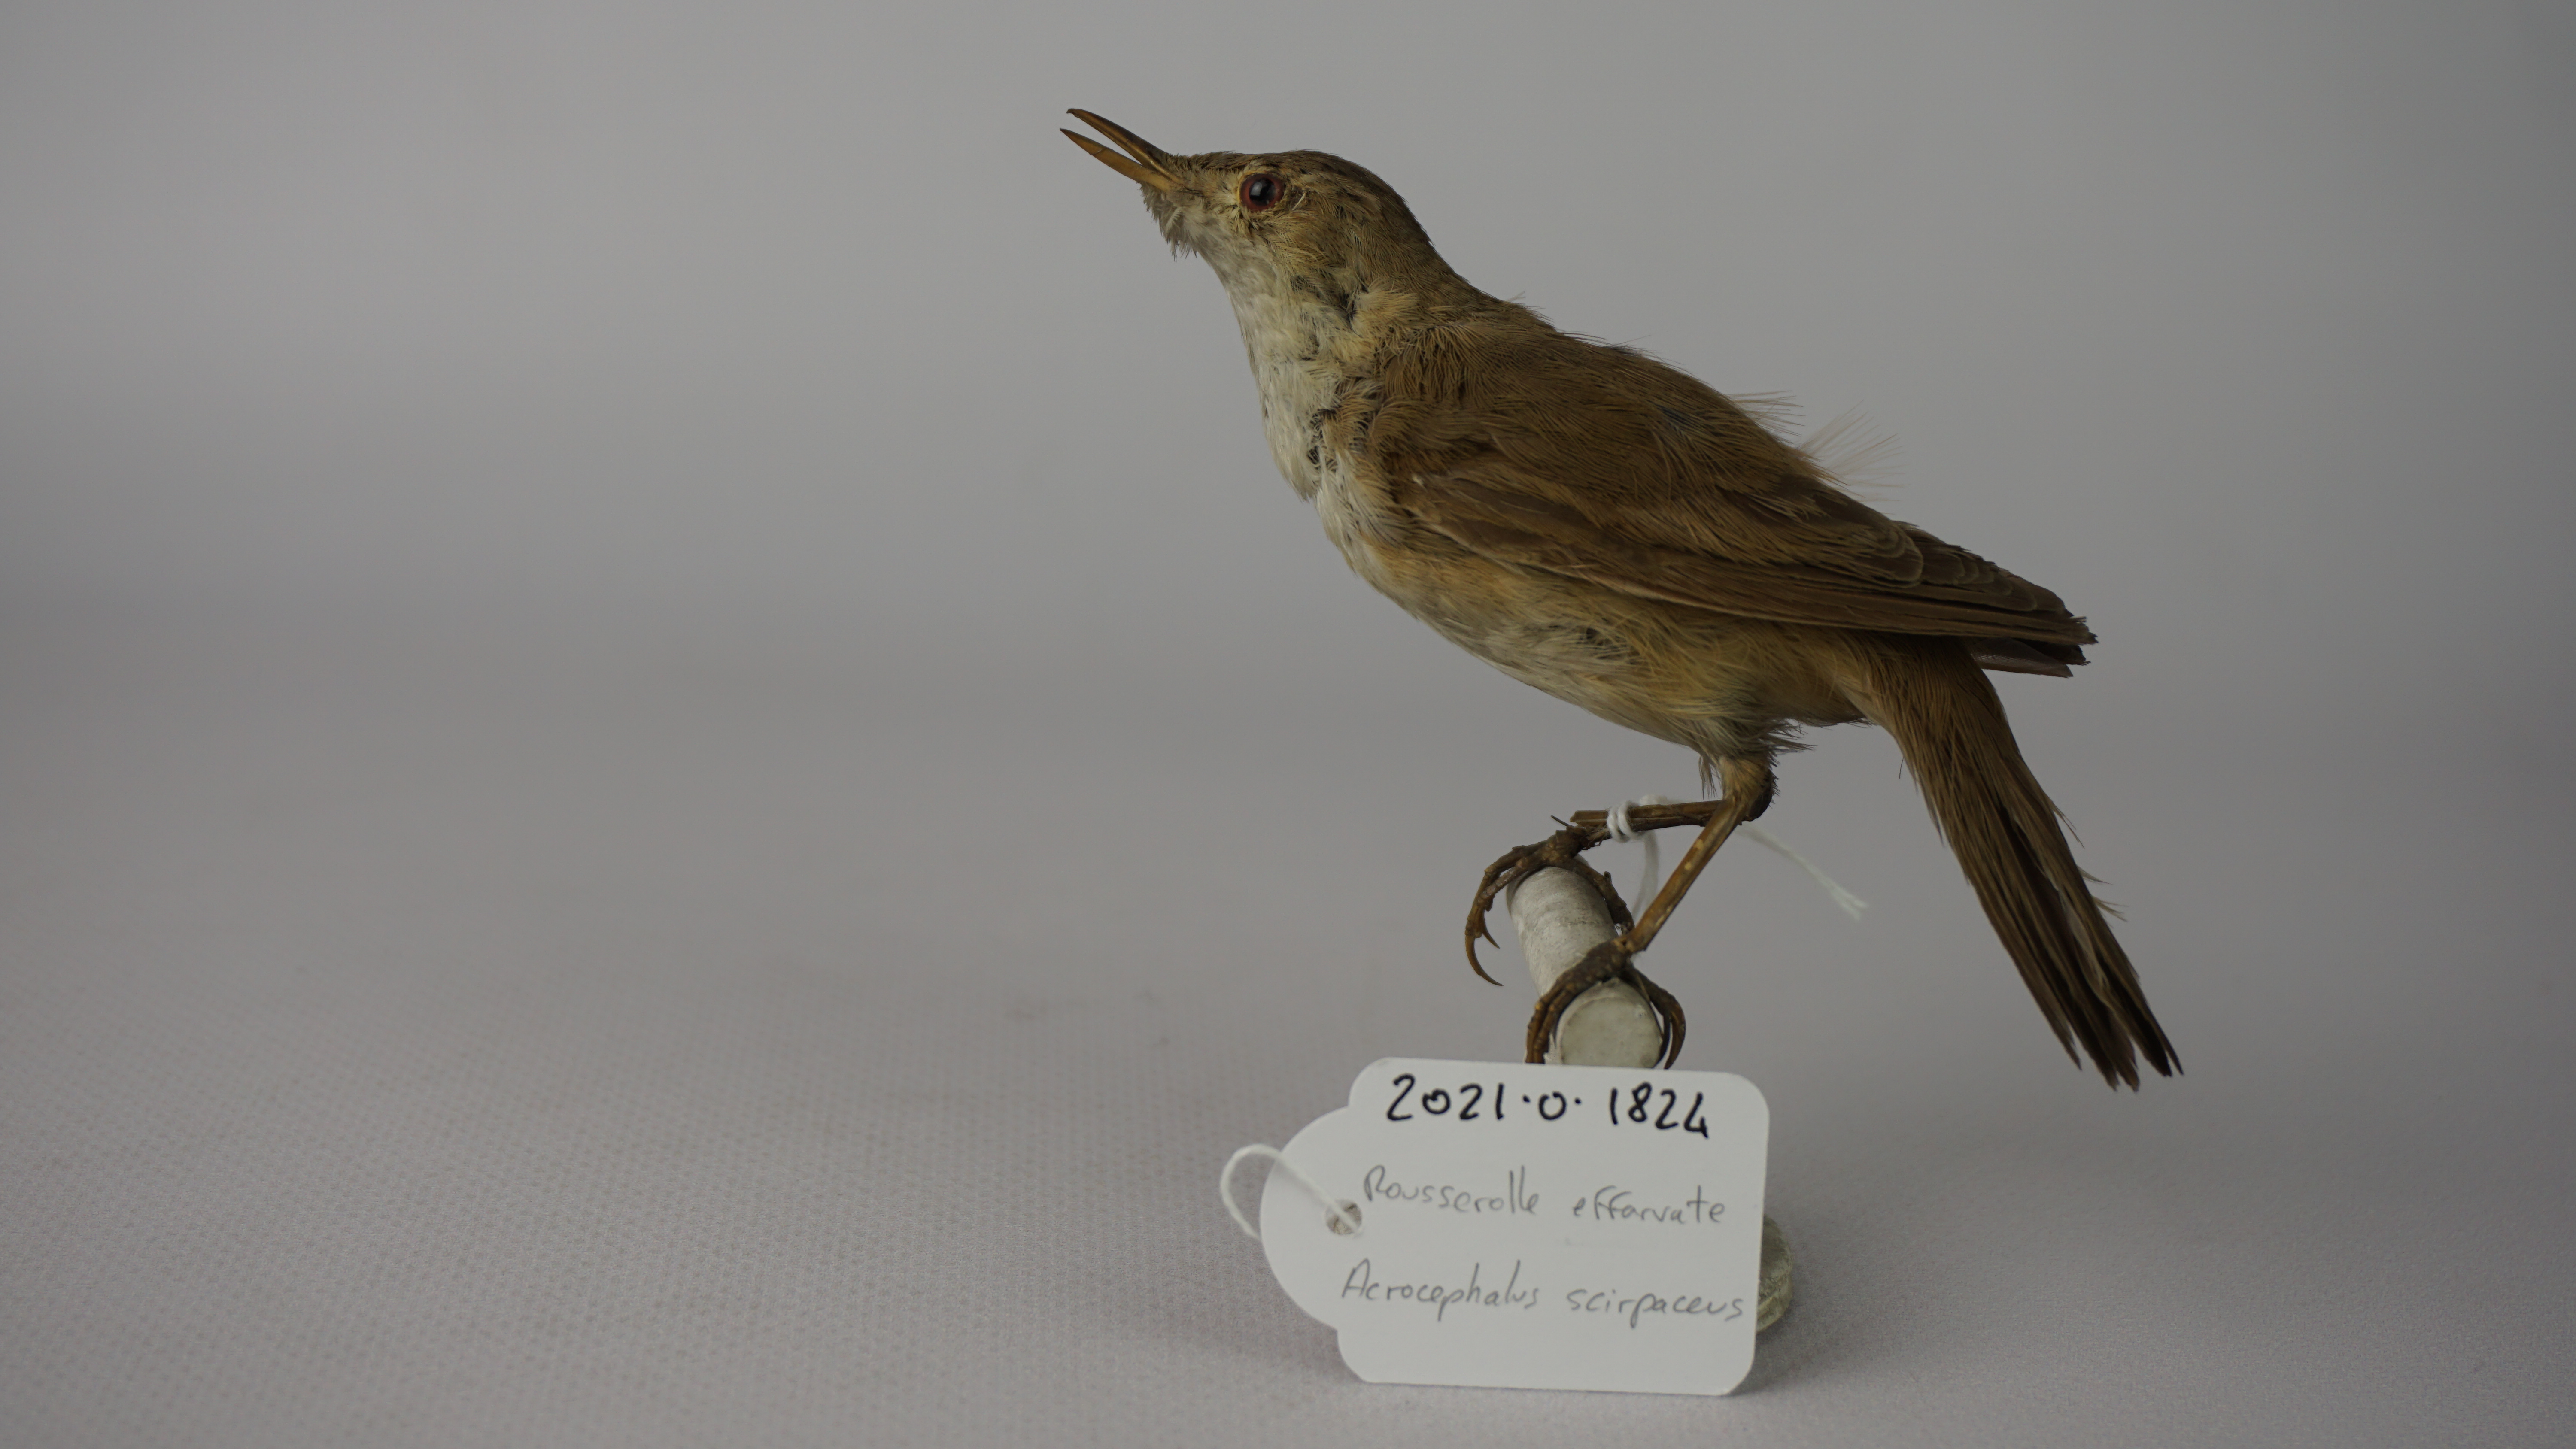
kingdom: Animalia
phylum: Chordata
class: Aves
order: Passeriformes
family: Acrocephalidae
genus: Acrocephalus
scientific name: Acrocephalus scirpaceus
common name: Eurasian reed warbler
